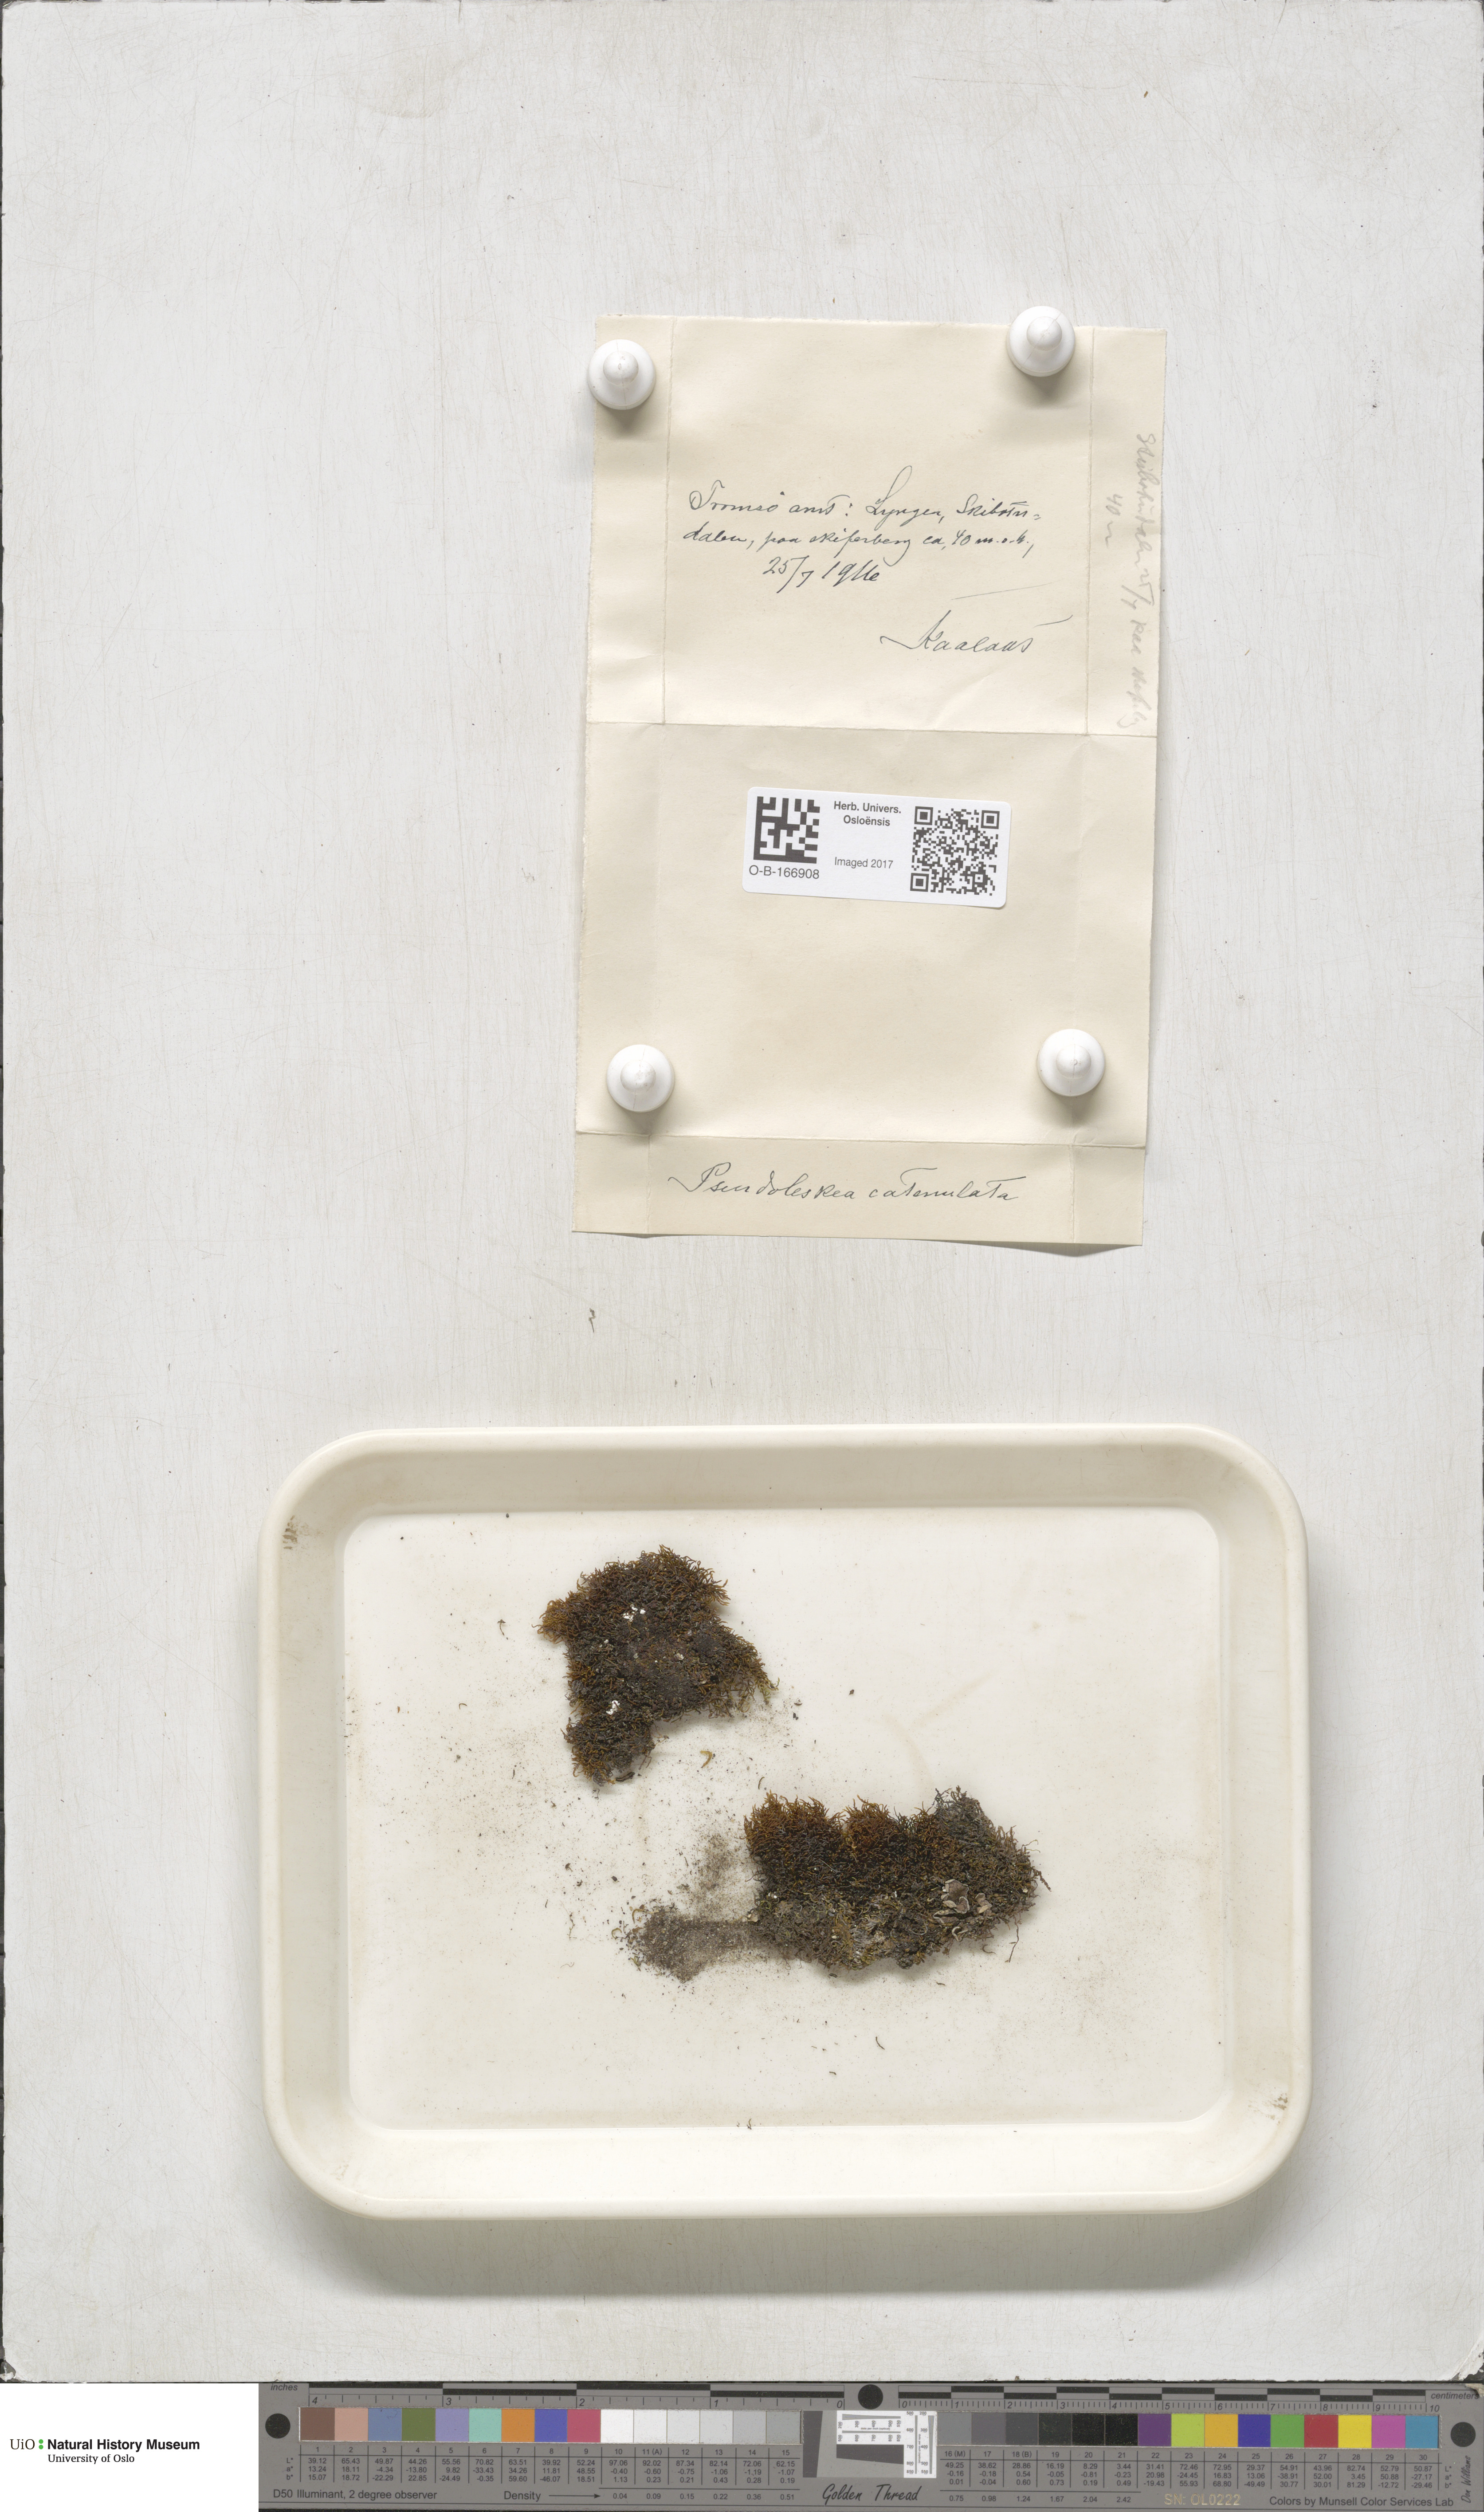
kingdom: Plantae
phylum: Bryophyta
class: Bryopsida
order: Hypnales
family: Pseudoleskeellaceae
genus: Pseudoleskeella
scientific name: Pseudoleskeella catenulata
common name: Chained leskea
